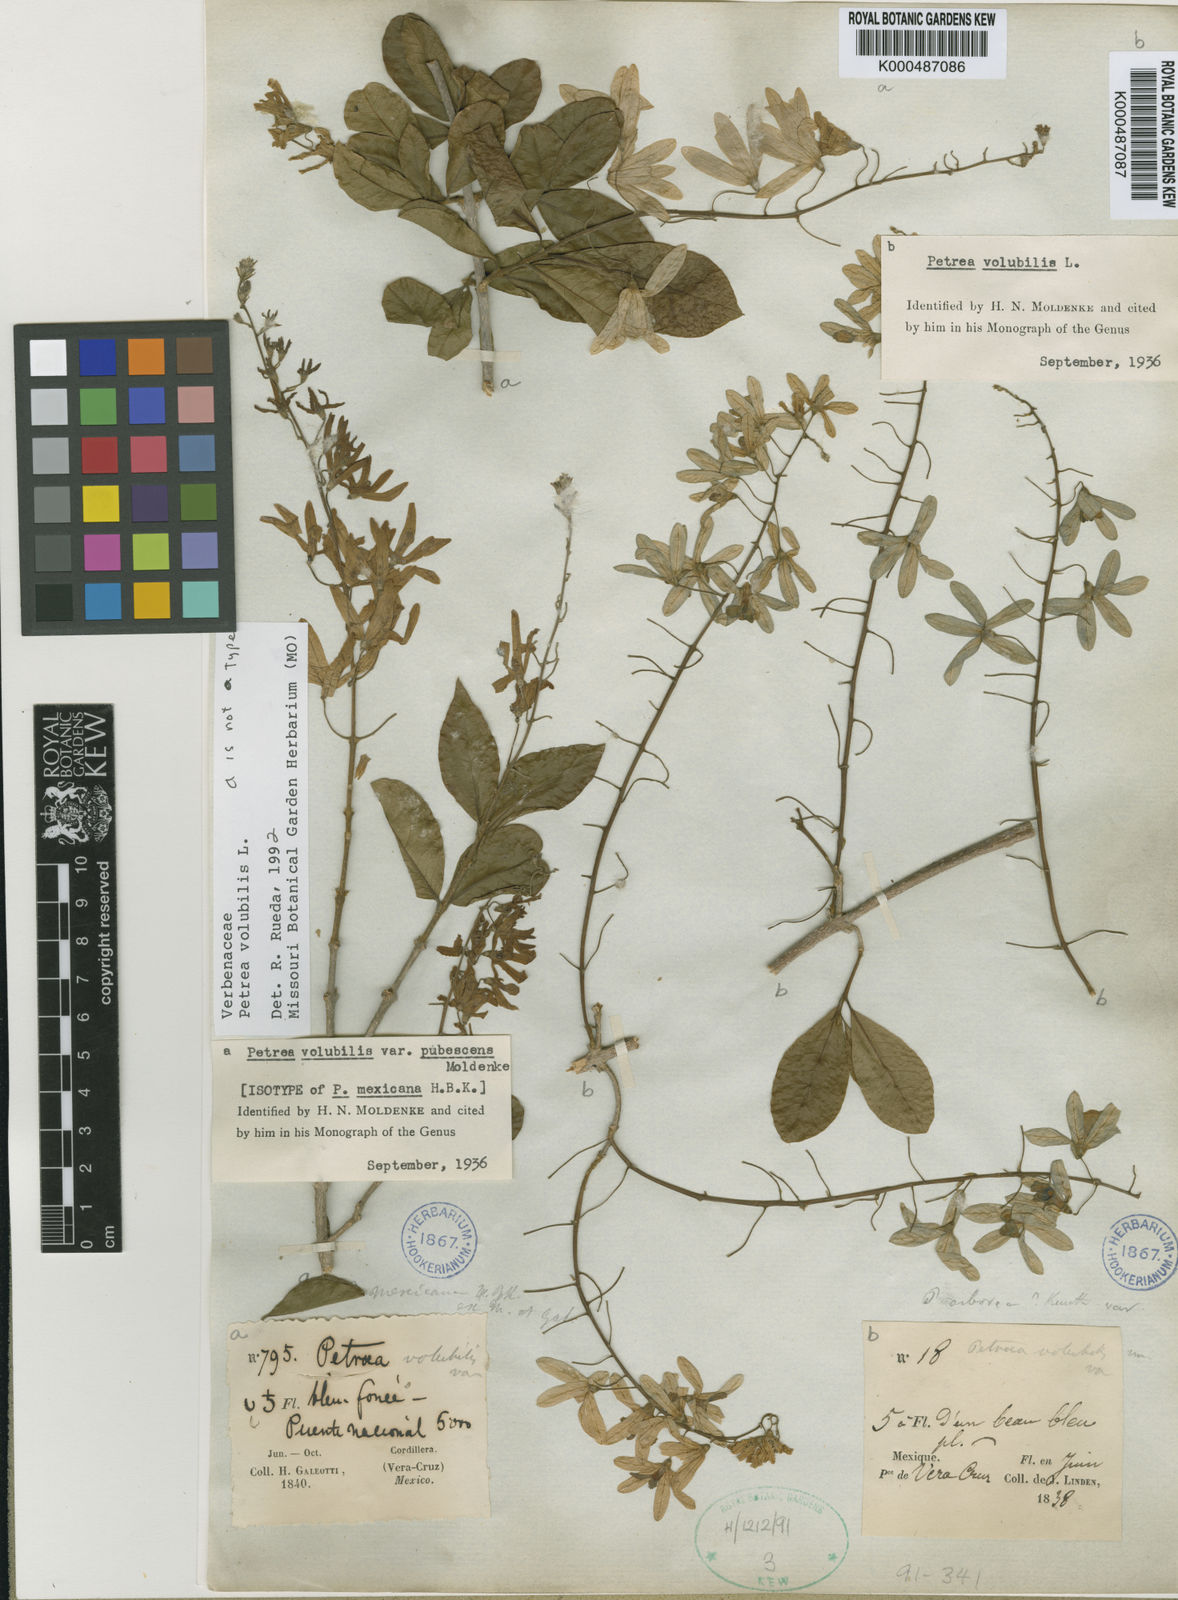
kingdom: Plantae
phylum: Tracheophyta
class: Magnoliopsida
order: Lamiales
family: Verbenaceae
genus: Petrea
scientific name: Petrea volubilis
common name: Queen's-wreath
